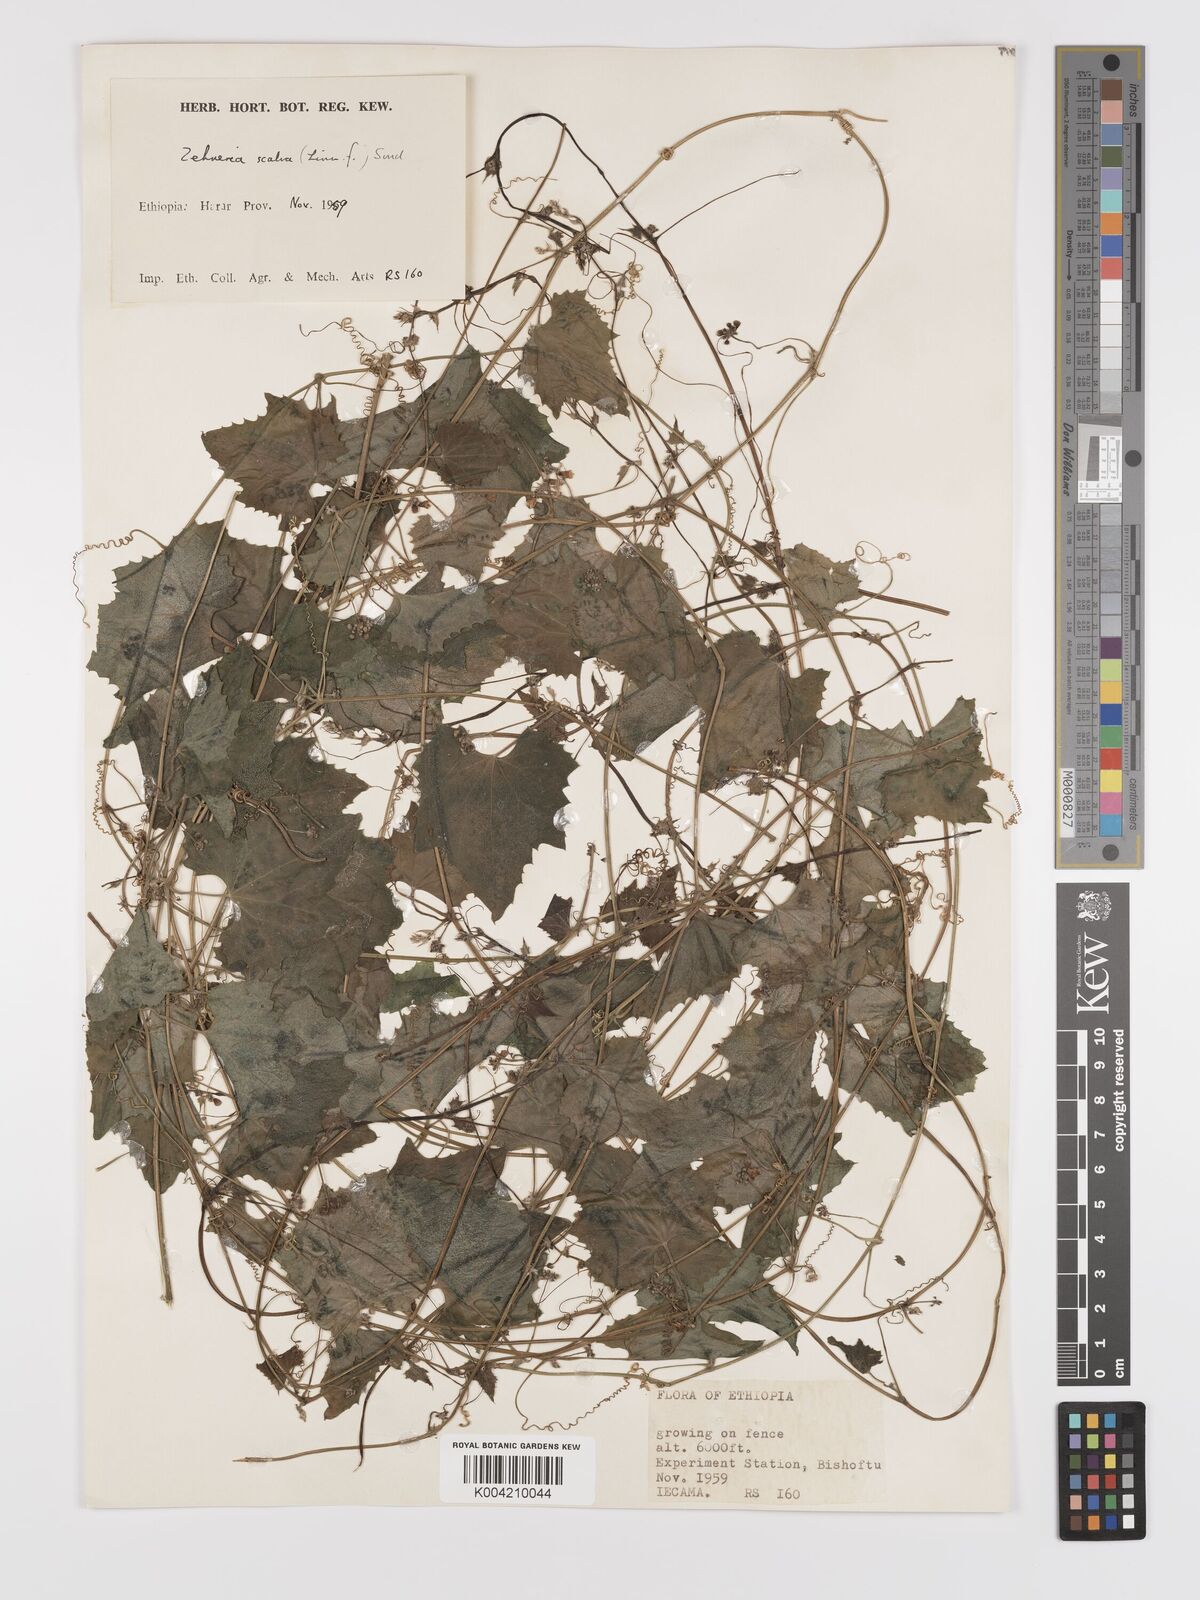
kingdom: Plantae
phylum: Tracheophyta
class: Magnoliopsida
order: Cucurbitales
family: Cucurbitaceae
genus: Zehneria
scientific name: Zehneria scabra
